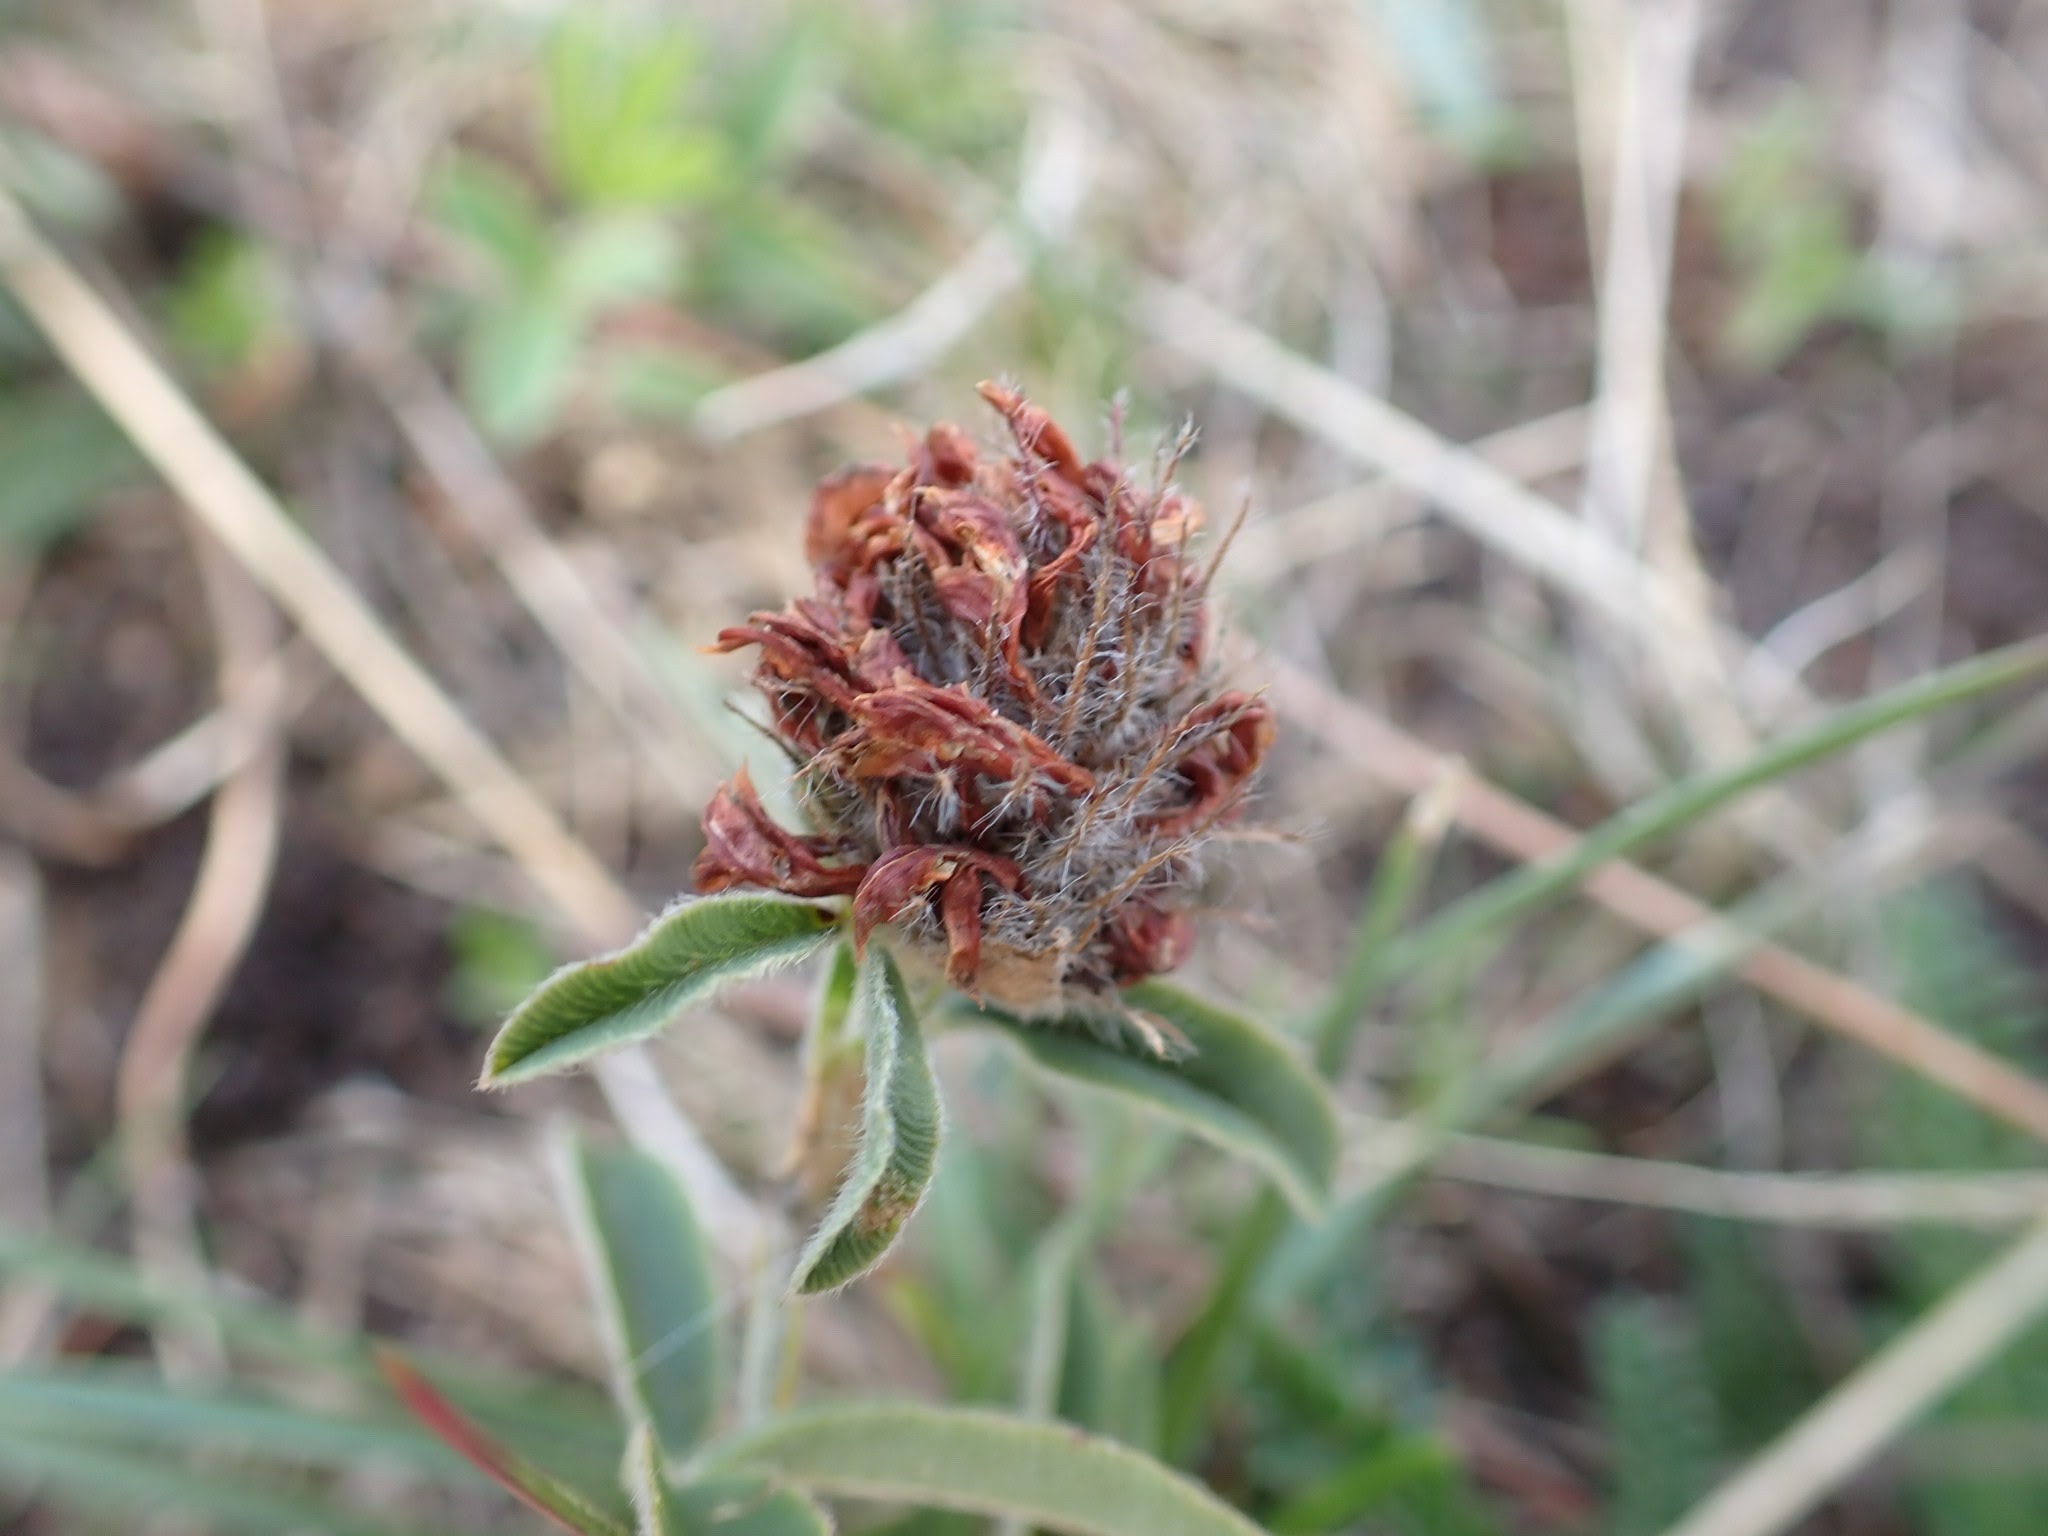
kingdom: Plantae
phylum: Tracheophyta
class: Magnoliopsida
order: Fabales
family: Fabaceae
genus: Trifolium
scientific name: Trifolium alpestre
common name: Skov-kløver
